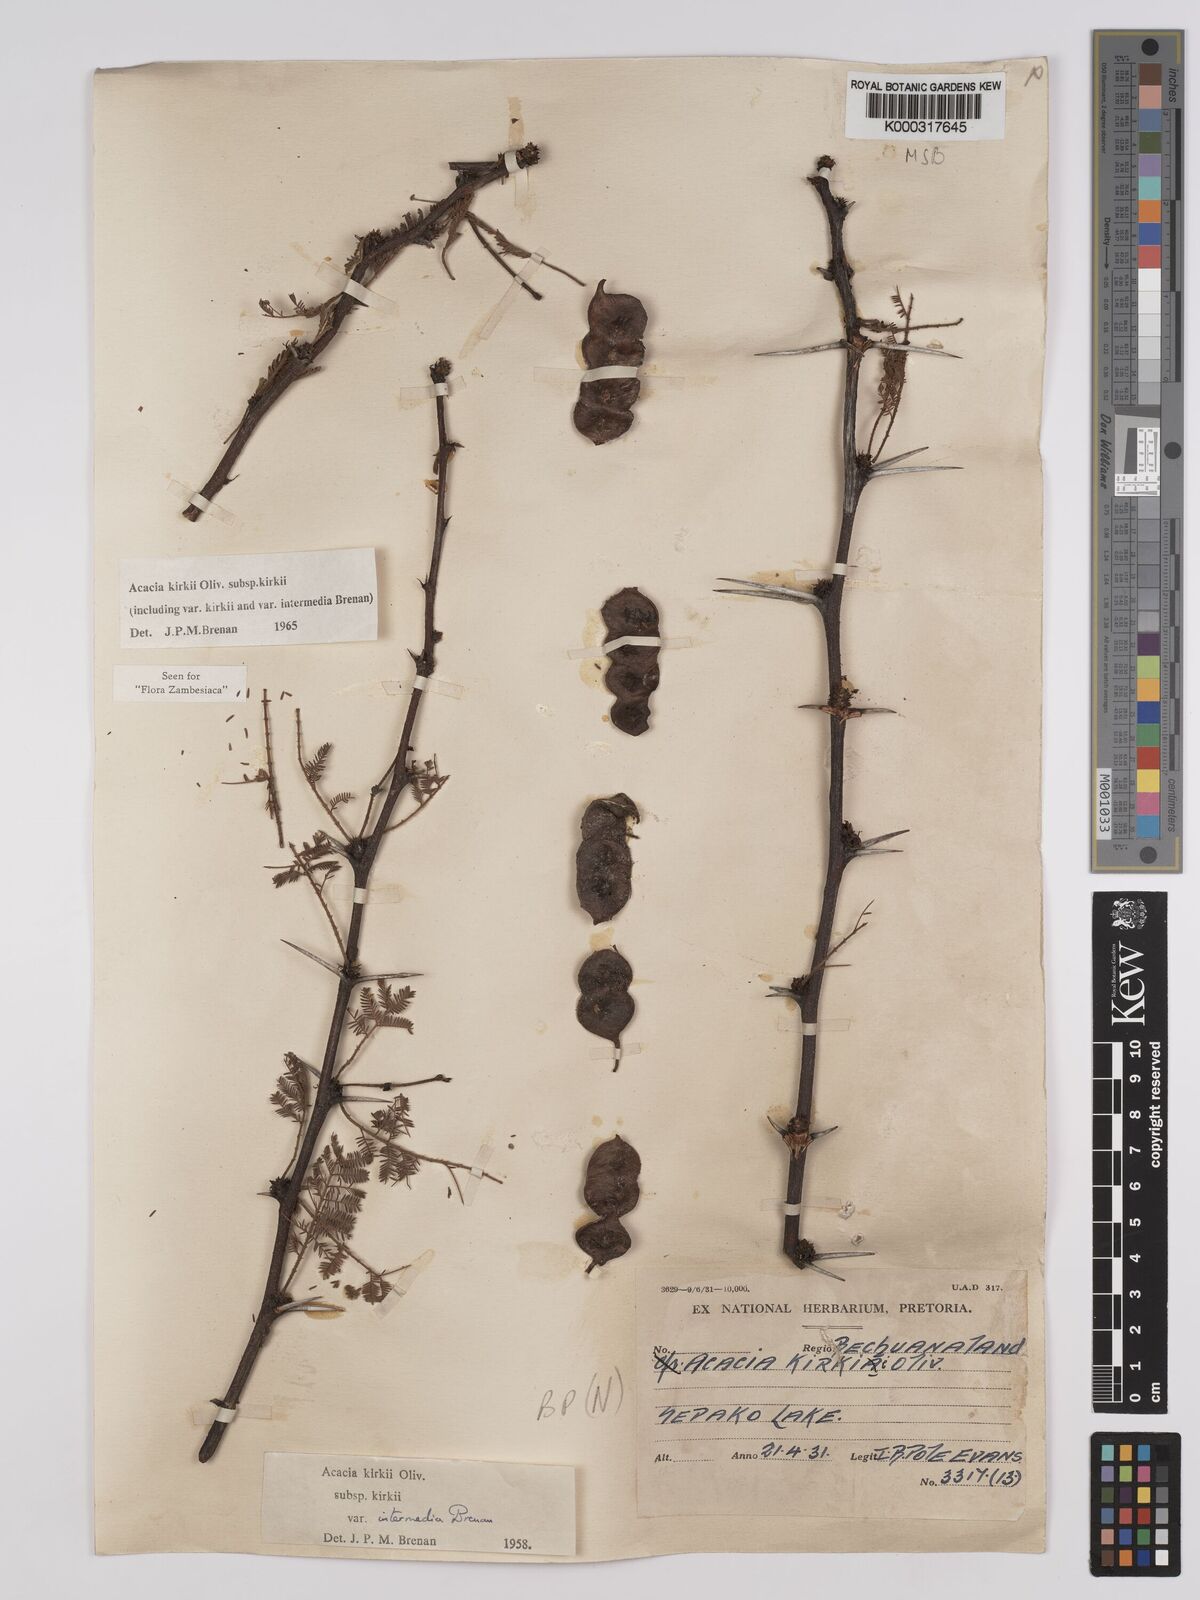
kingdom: Plantae
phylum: Tracheophyta
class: Magnoliopsida
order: Fabales
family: Fabaceae
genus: Vachellia
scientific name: Vachellia kirkii
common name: Flood-plain acacia
